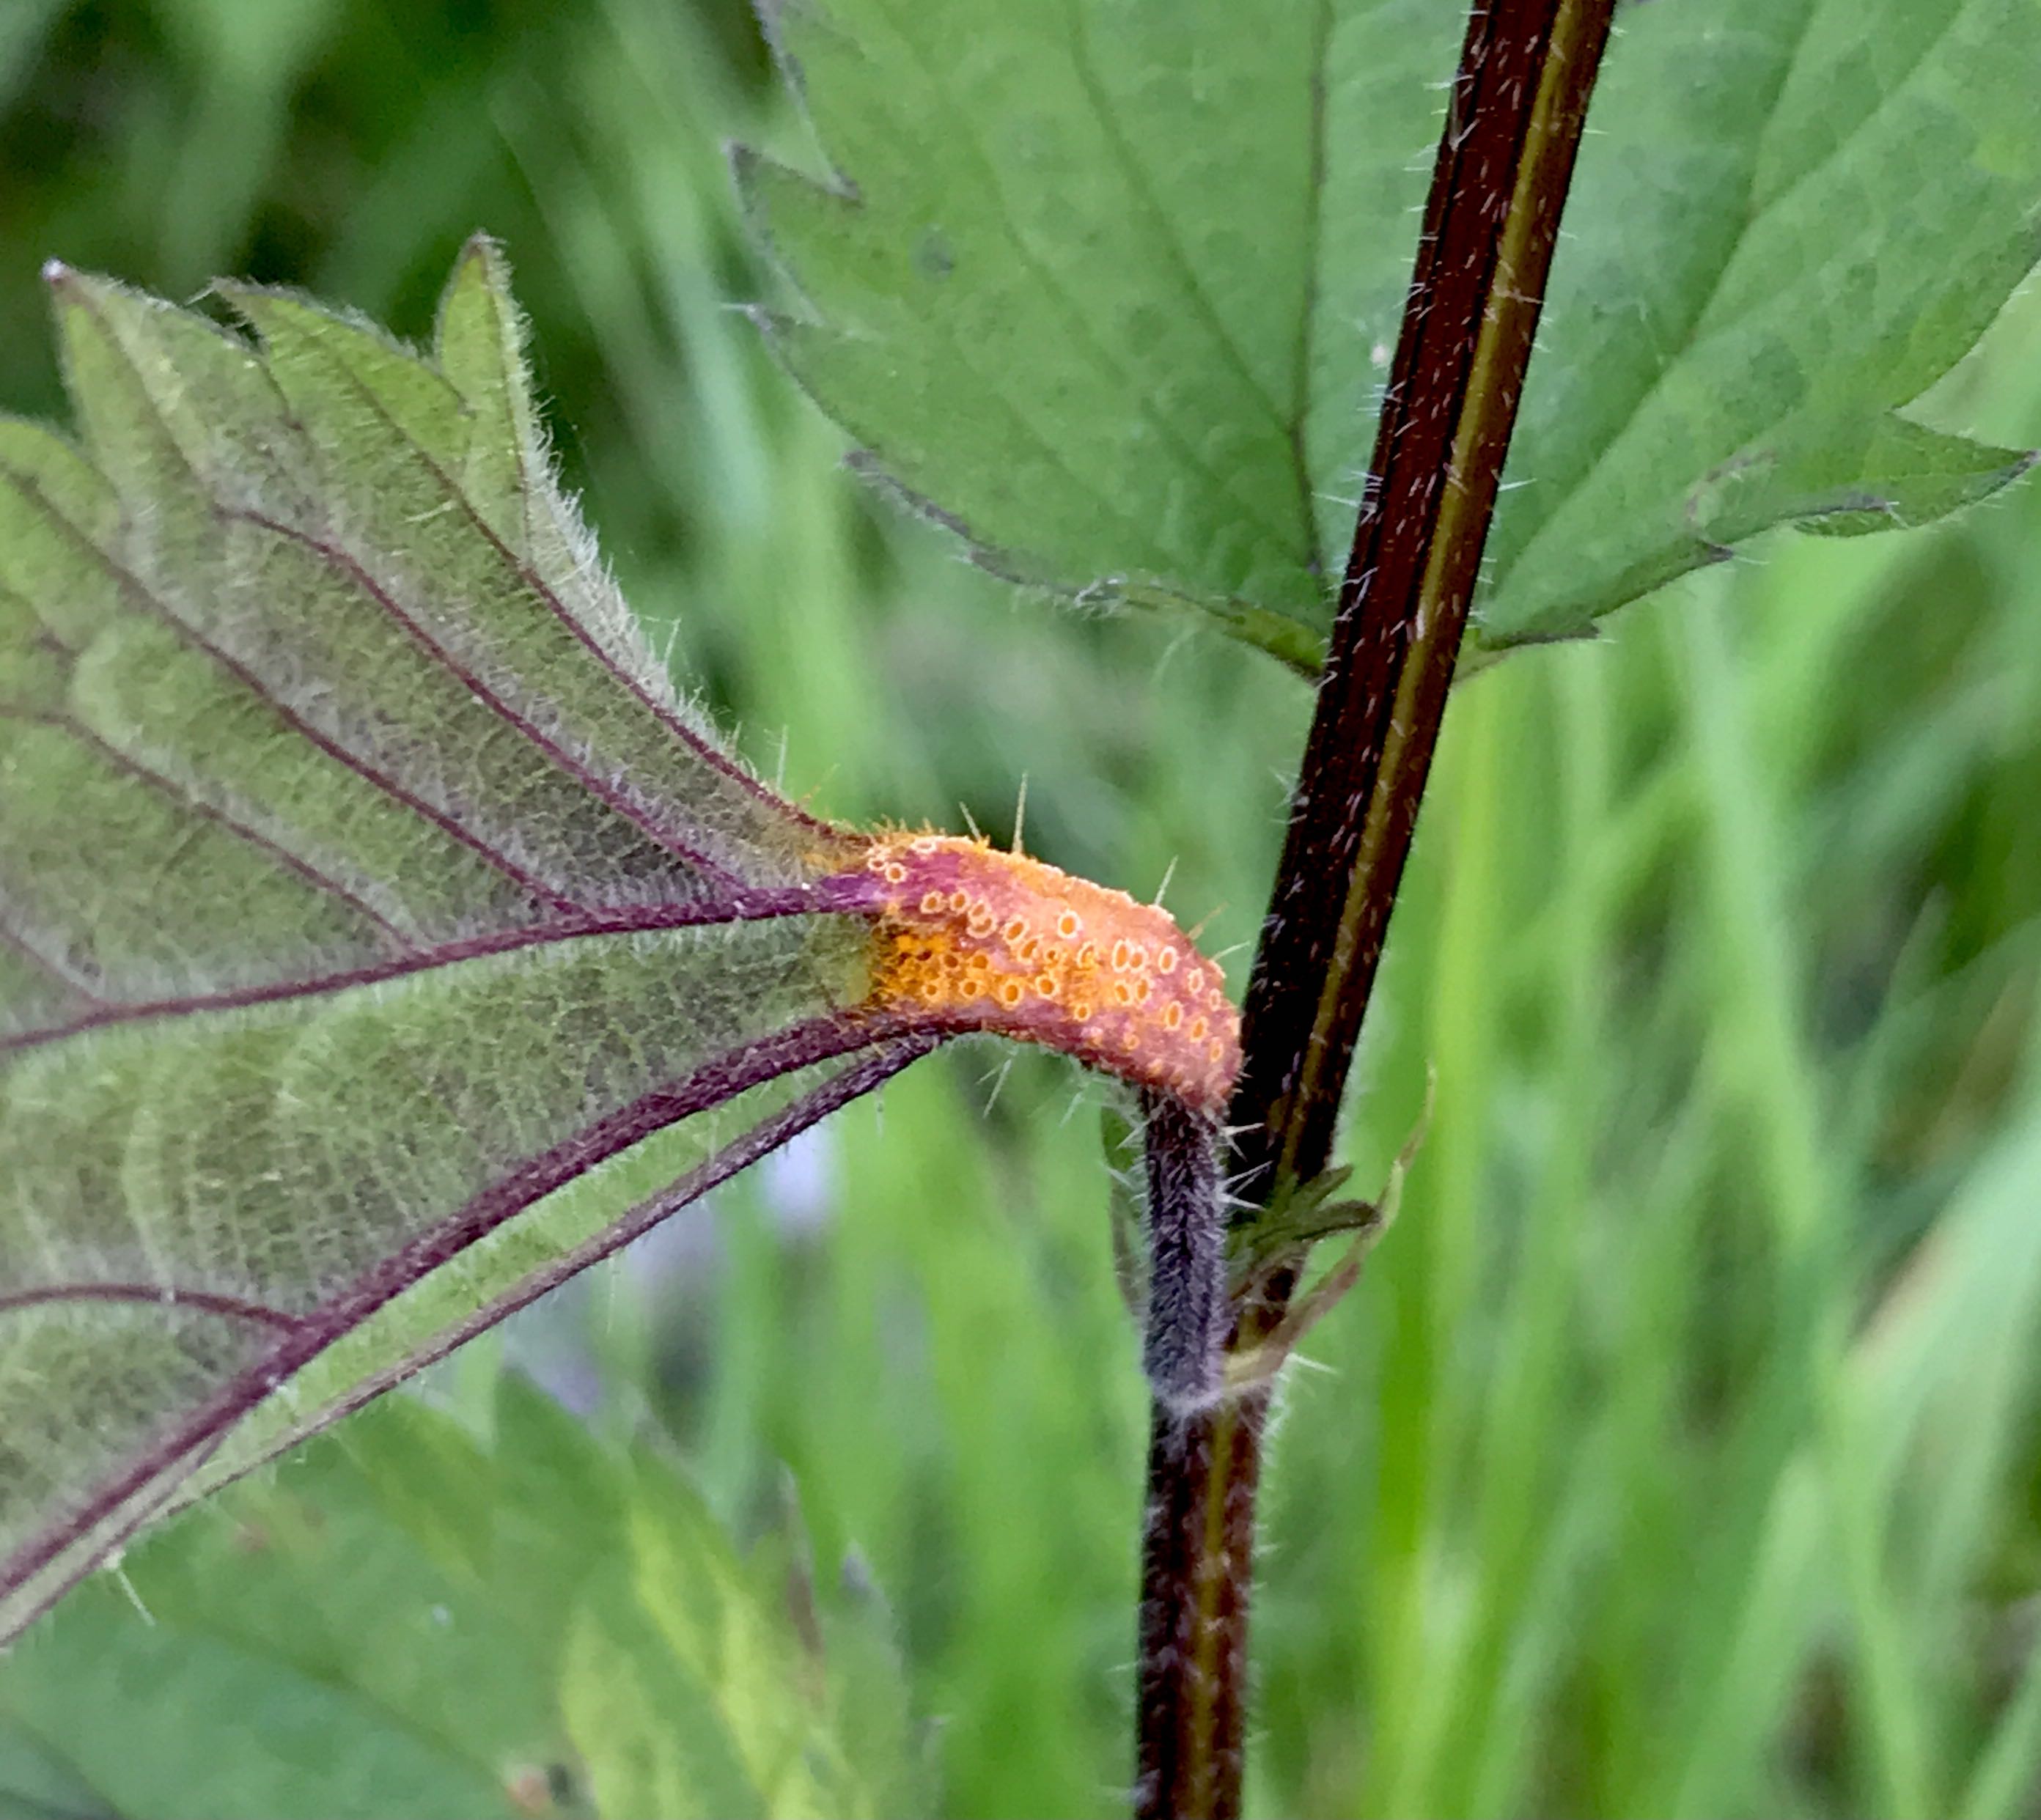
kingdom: Fungi
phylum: Basidiomycota
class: Pucciniomycetes
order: Pucciniales
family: Pucciniaceae
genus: Puccinia
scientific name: Puccinia urticata
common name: nældegalle-tvecellerust
